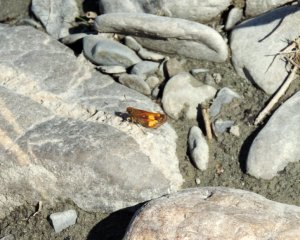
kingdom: Animalia
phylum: Arthropoda
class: Insecta
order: Lepidoptera
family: Hesperiidae
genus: Lon
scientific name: Lon hobomok
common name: Hobomok Skipper
